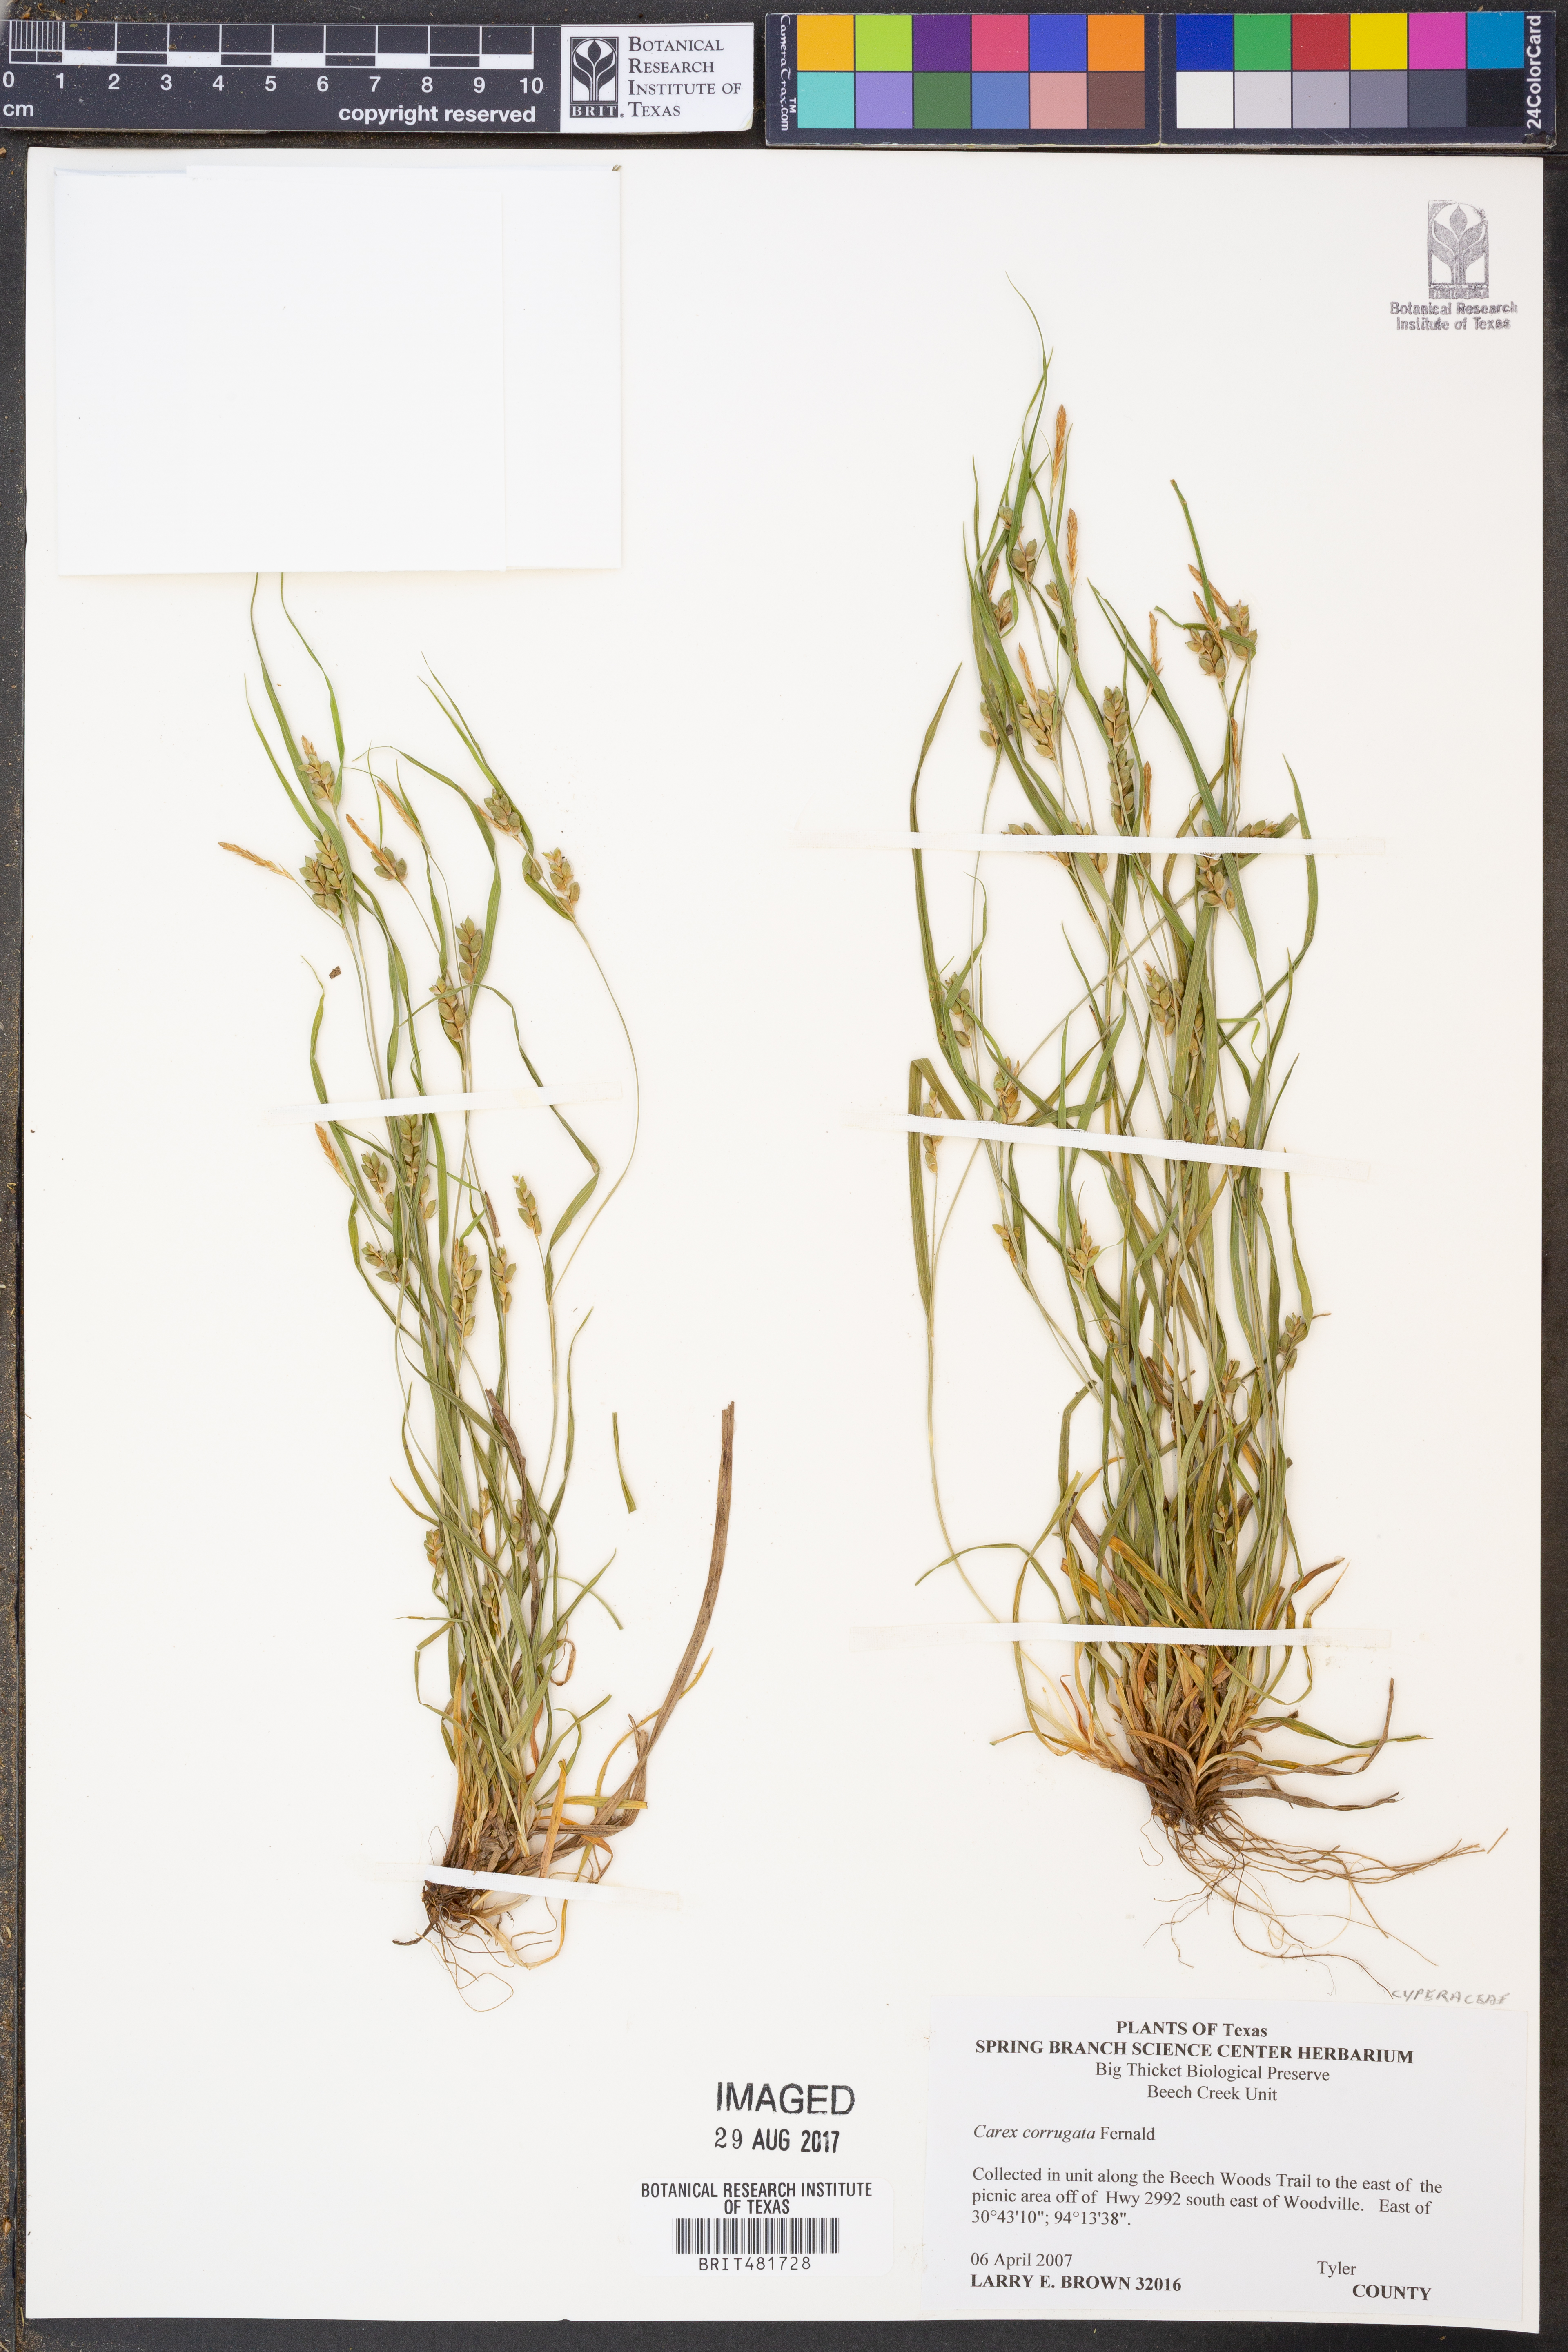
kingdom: Plantae
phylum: Tracheophyta
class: Liliopsida
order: Poales
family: Cyperaceae
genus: Carex
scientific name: Carex corrugata
